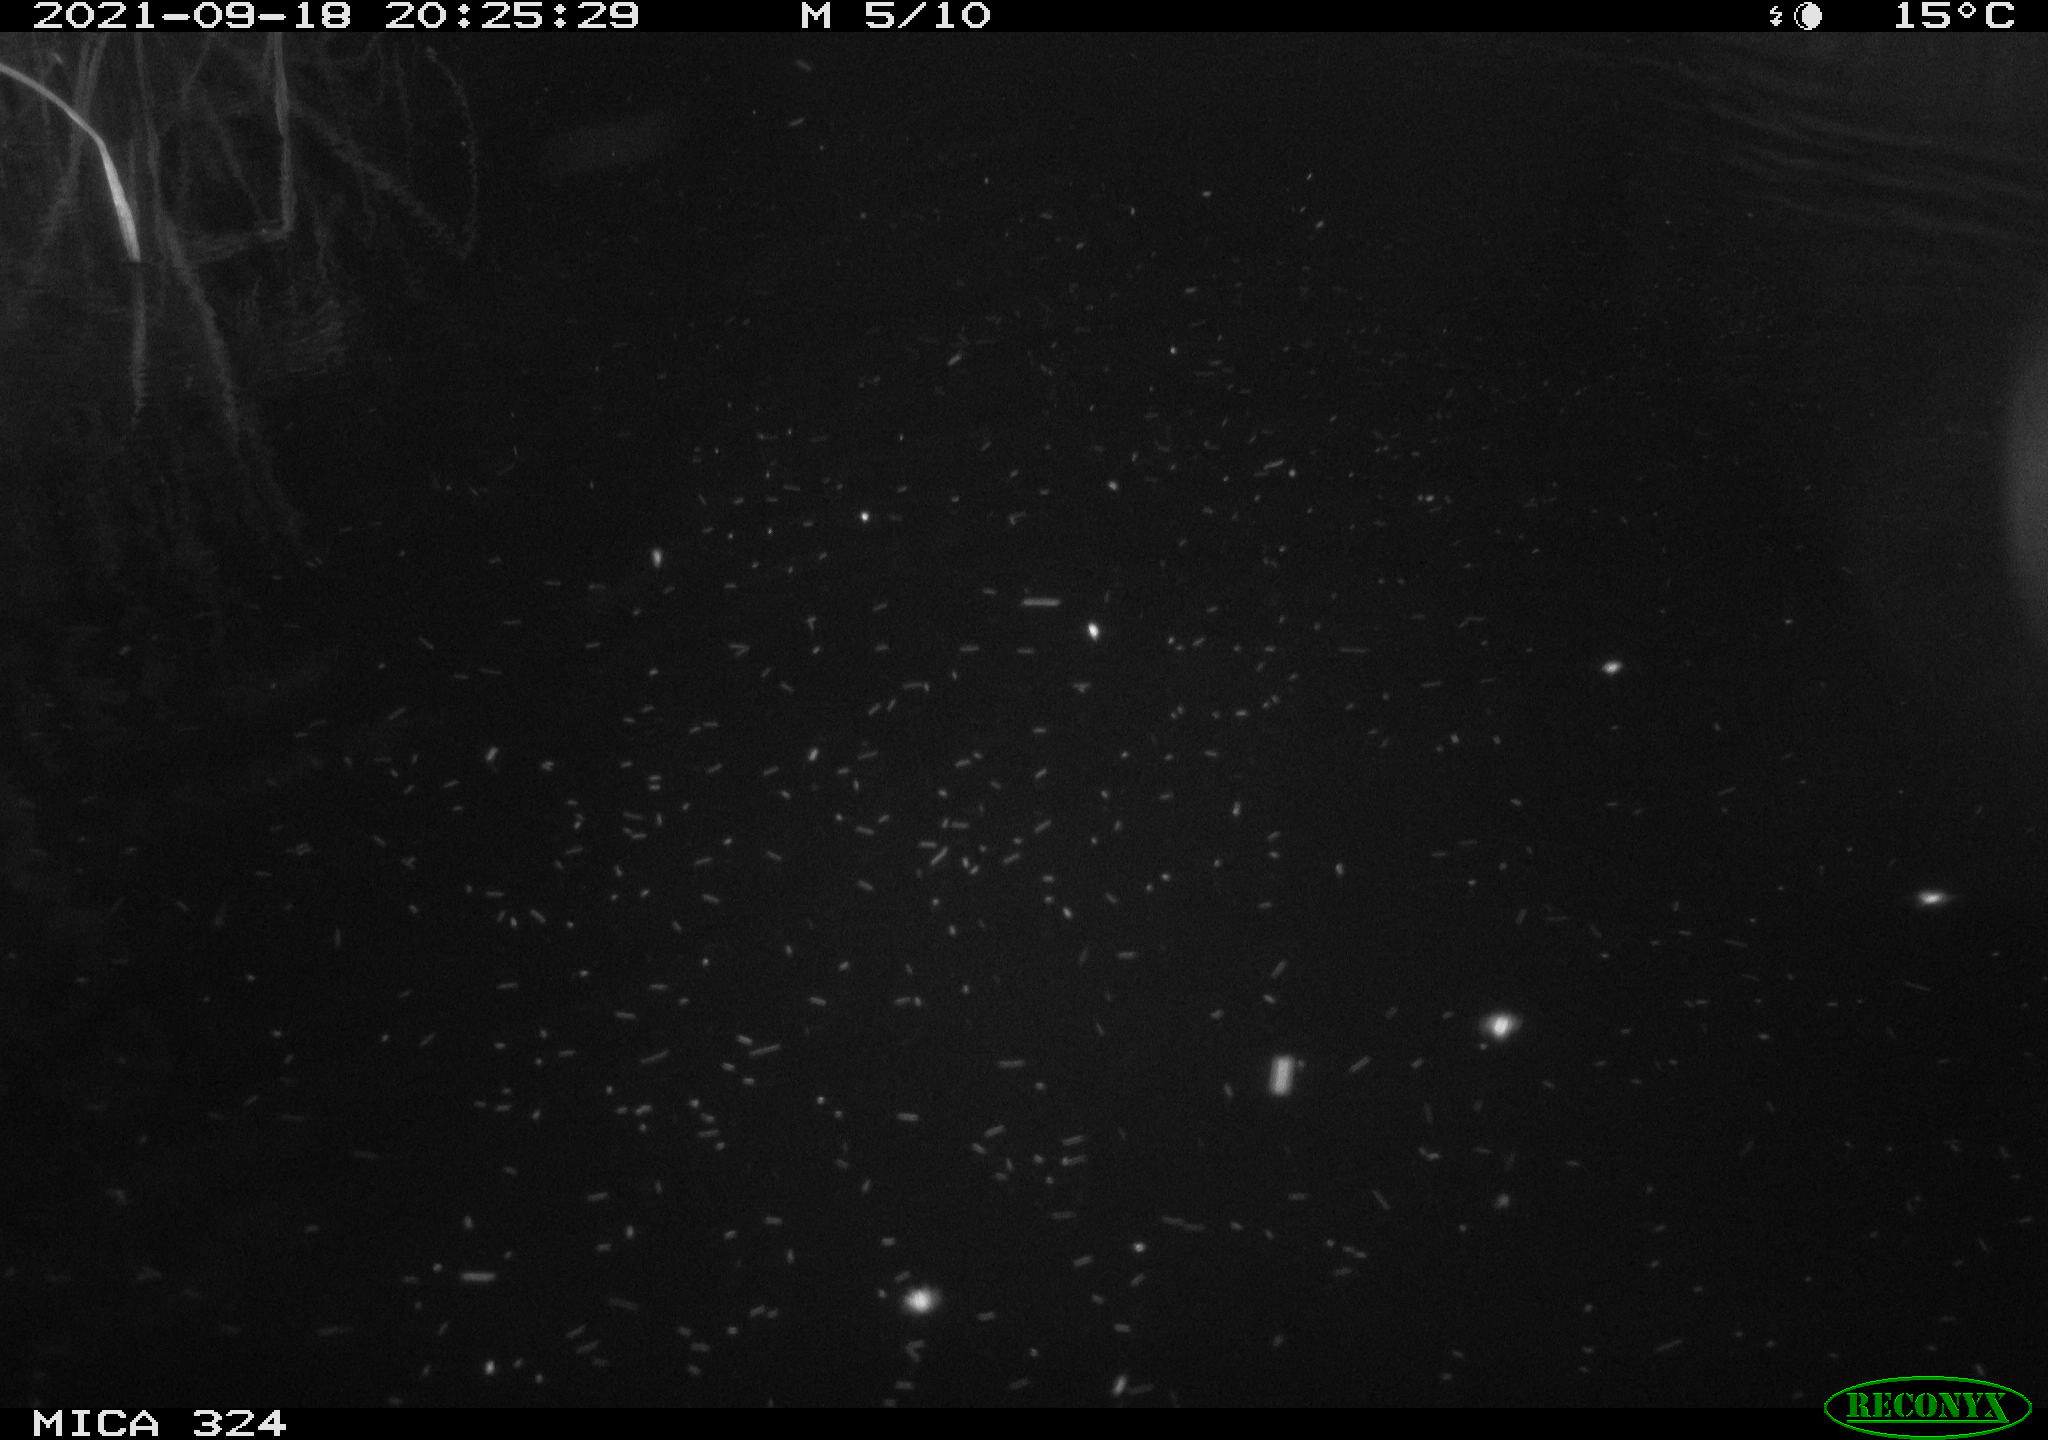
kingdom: Animalia
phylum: Chordata
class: Mammalia
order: Rodentia
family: Cricetidae
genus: Ondatra
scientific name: Ondatra zibethicus
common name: Muskrat
